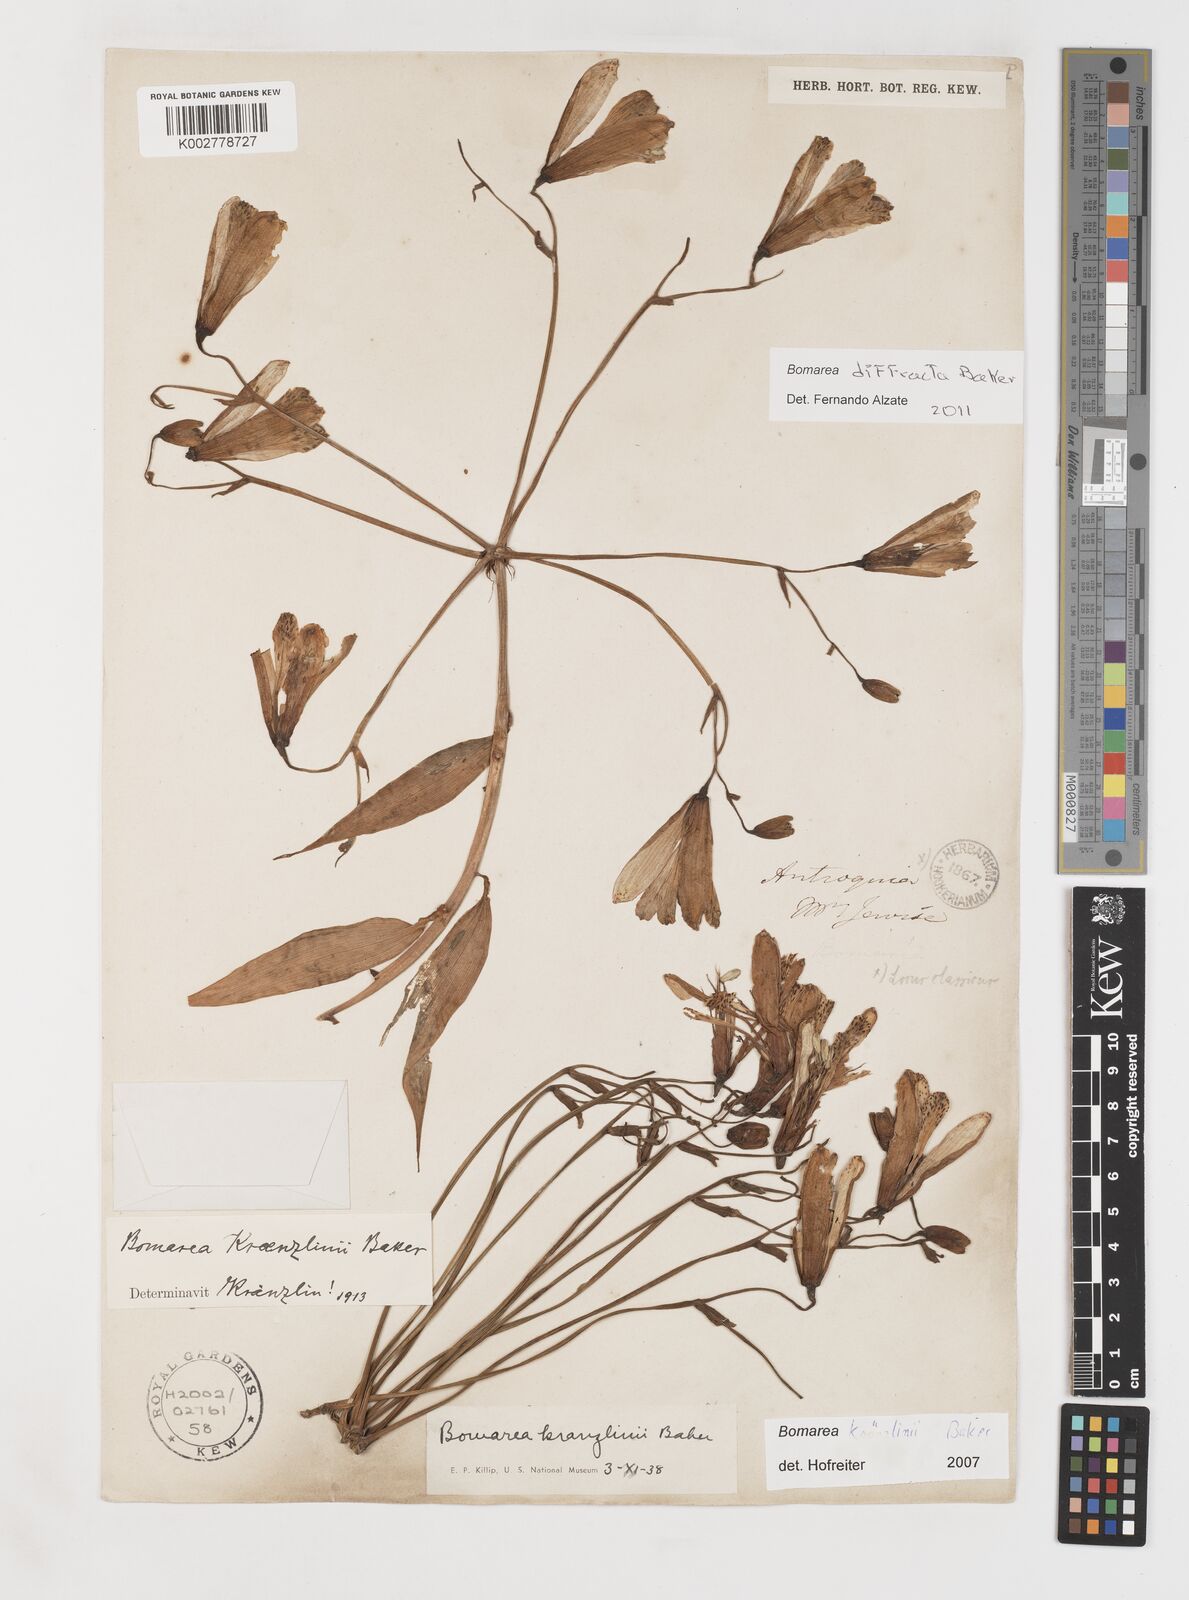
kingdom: Plantae
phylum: Tracheophyta
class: Liliopsida
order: Liliales
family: Alstroemeriaceae
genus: Bomarea
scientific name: Bomarea kraenzlinii
